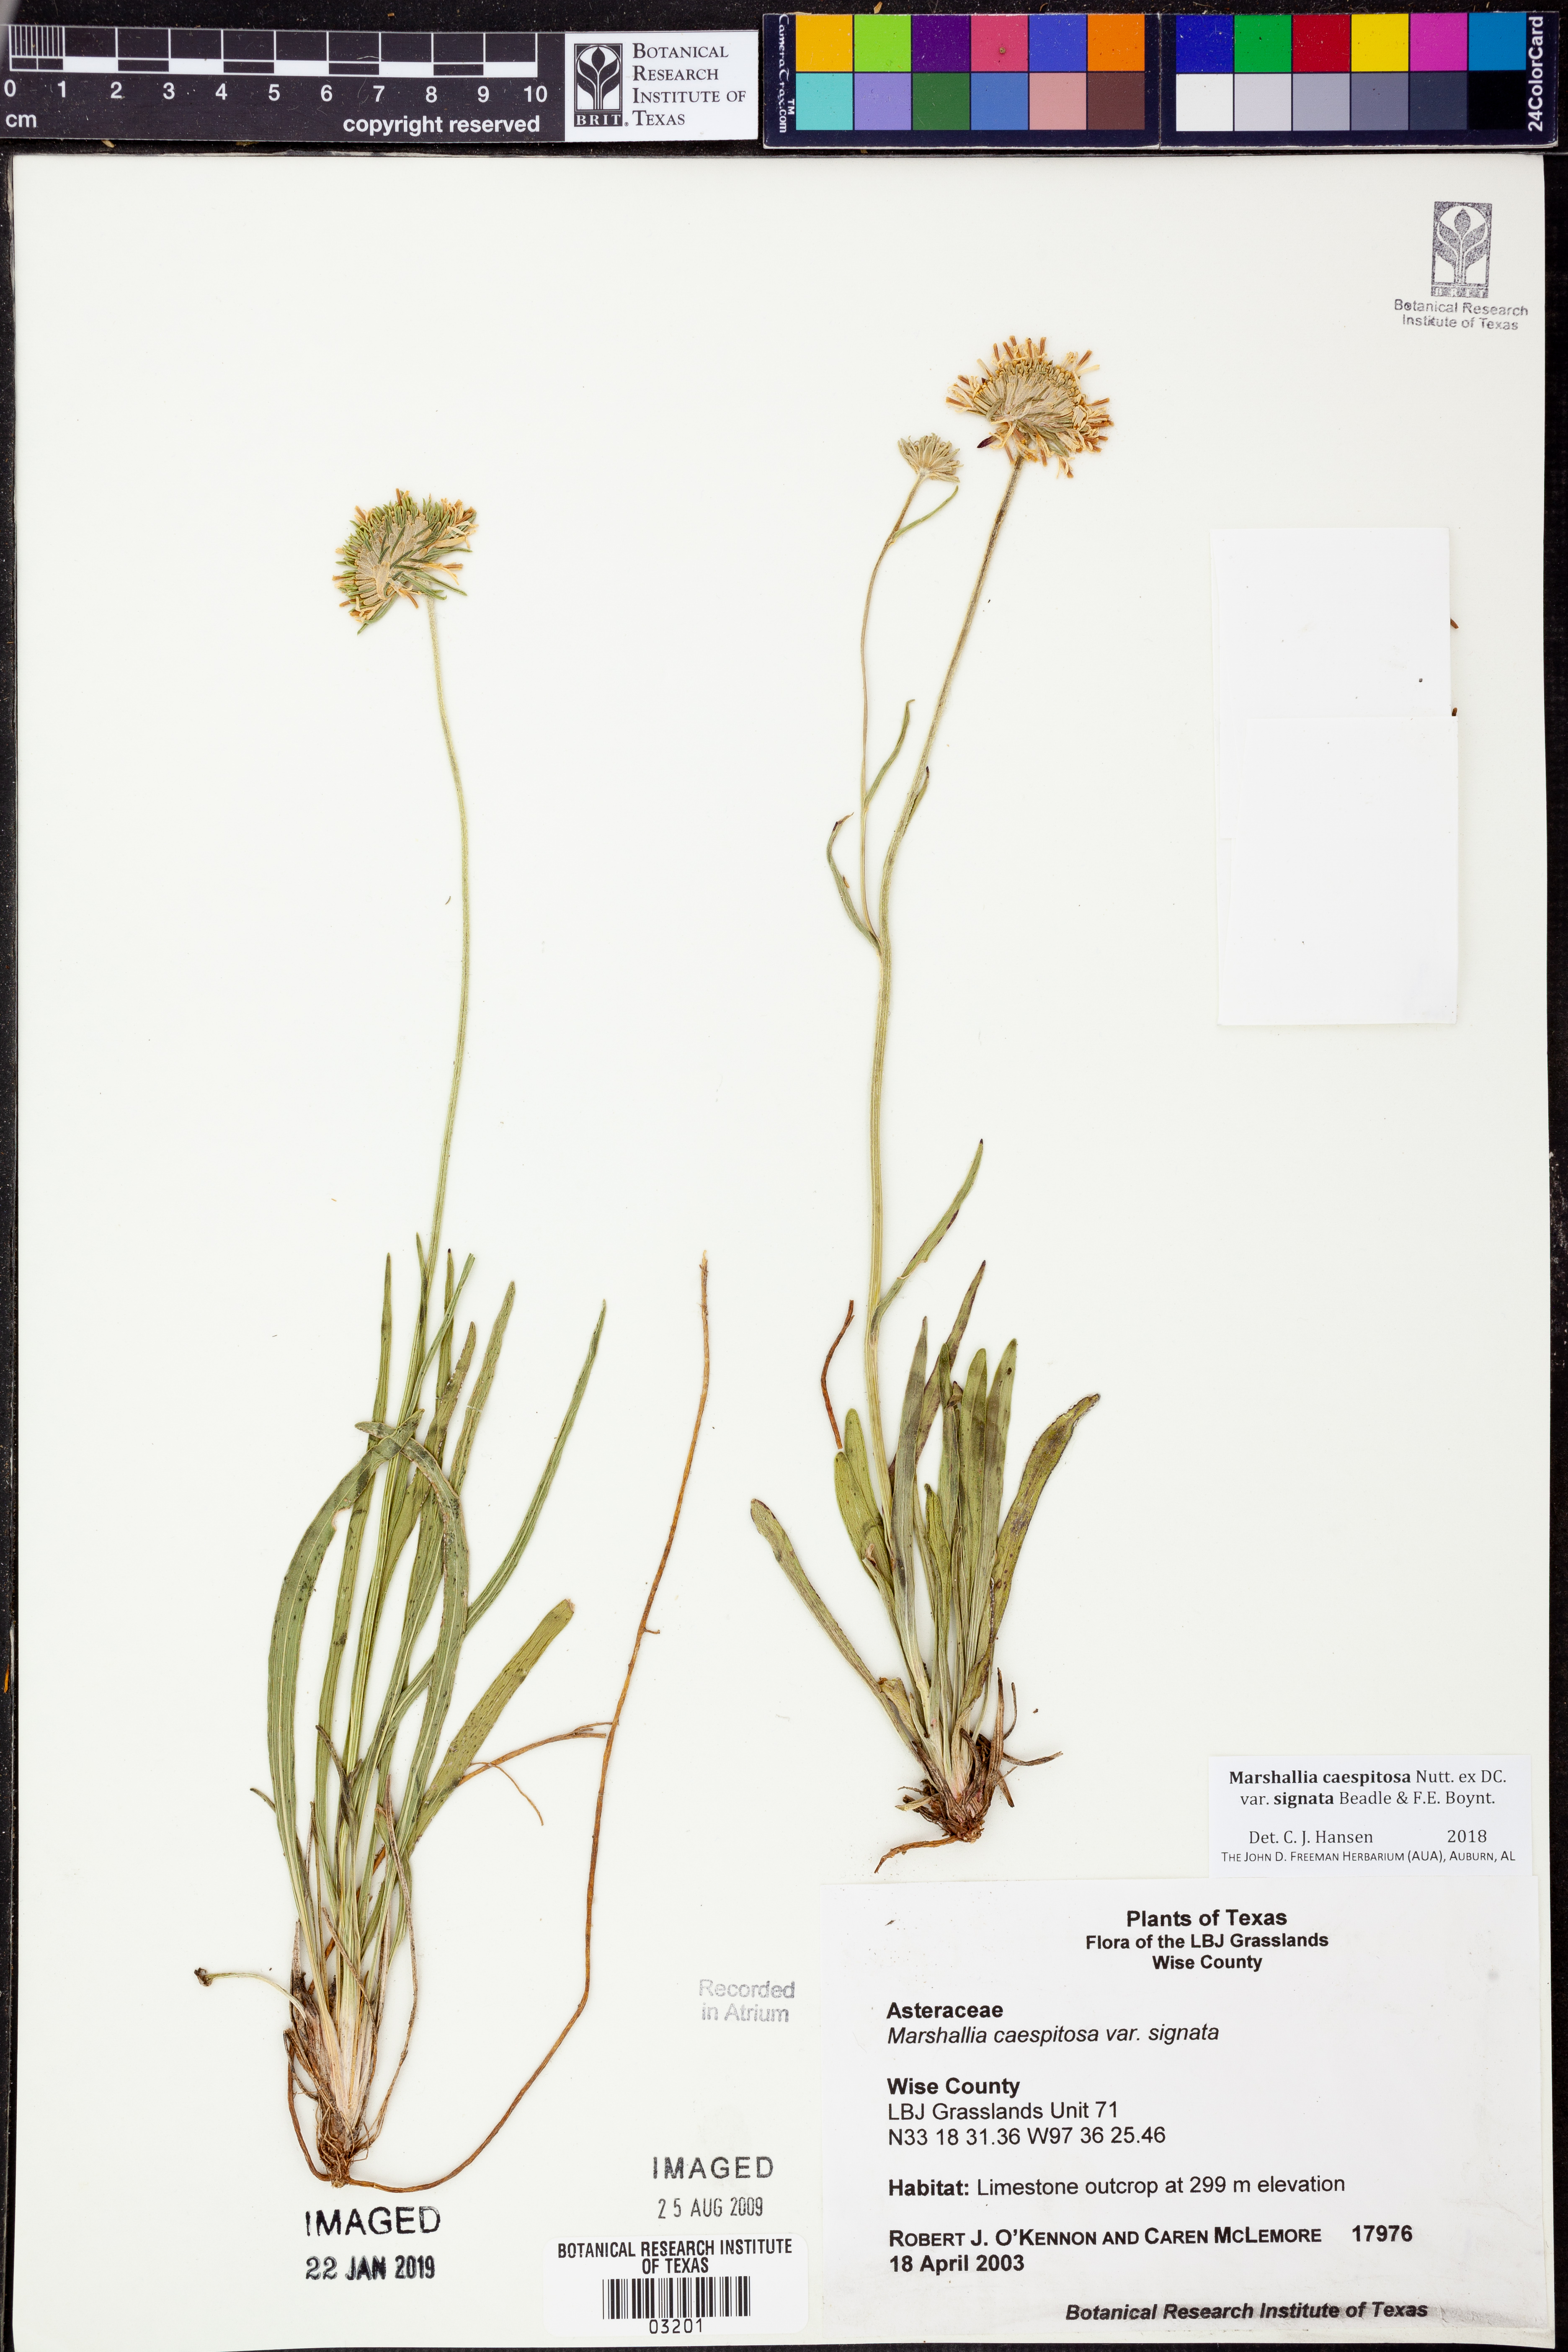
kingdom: Plantae
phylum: Tracheophyta
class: Magnoliopsida
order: Asterales
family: Asteraceae
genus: Marshallia
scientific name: Marshallia caespitosa
